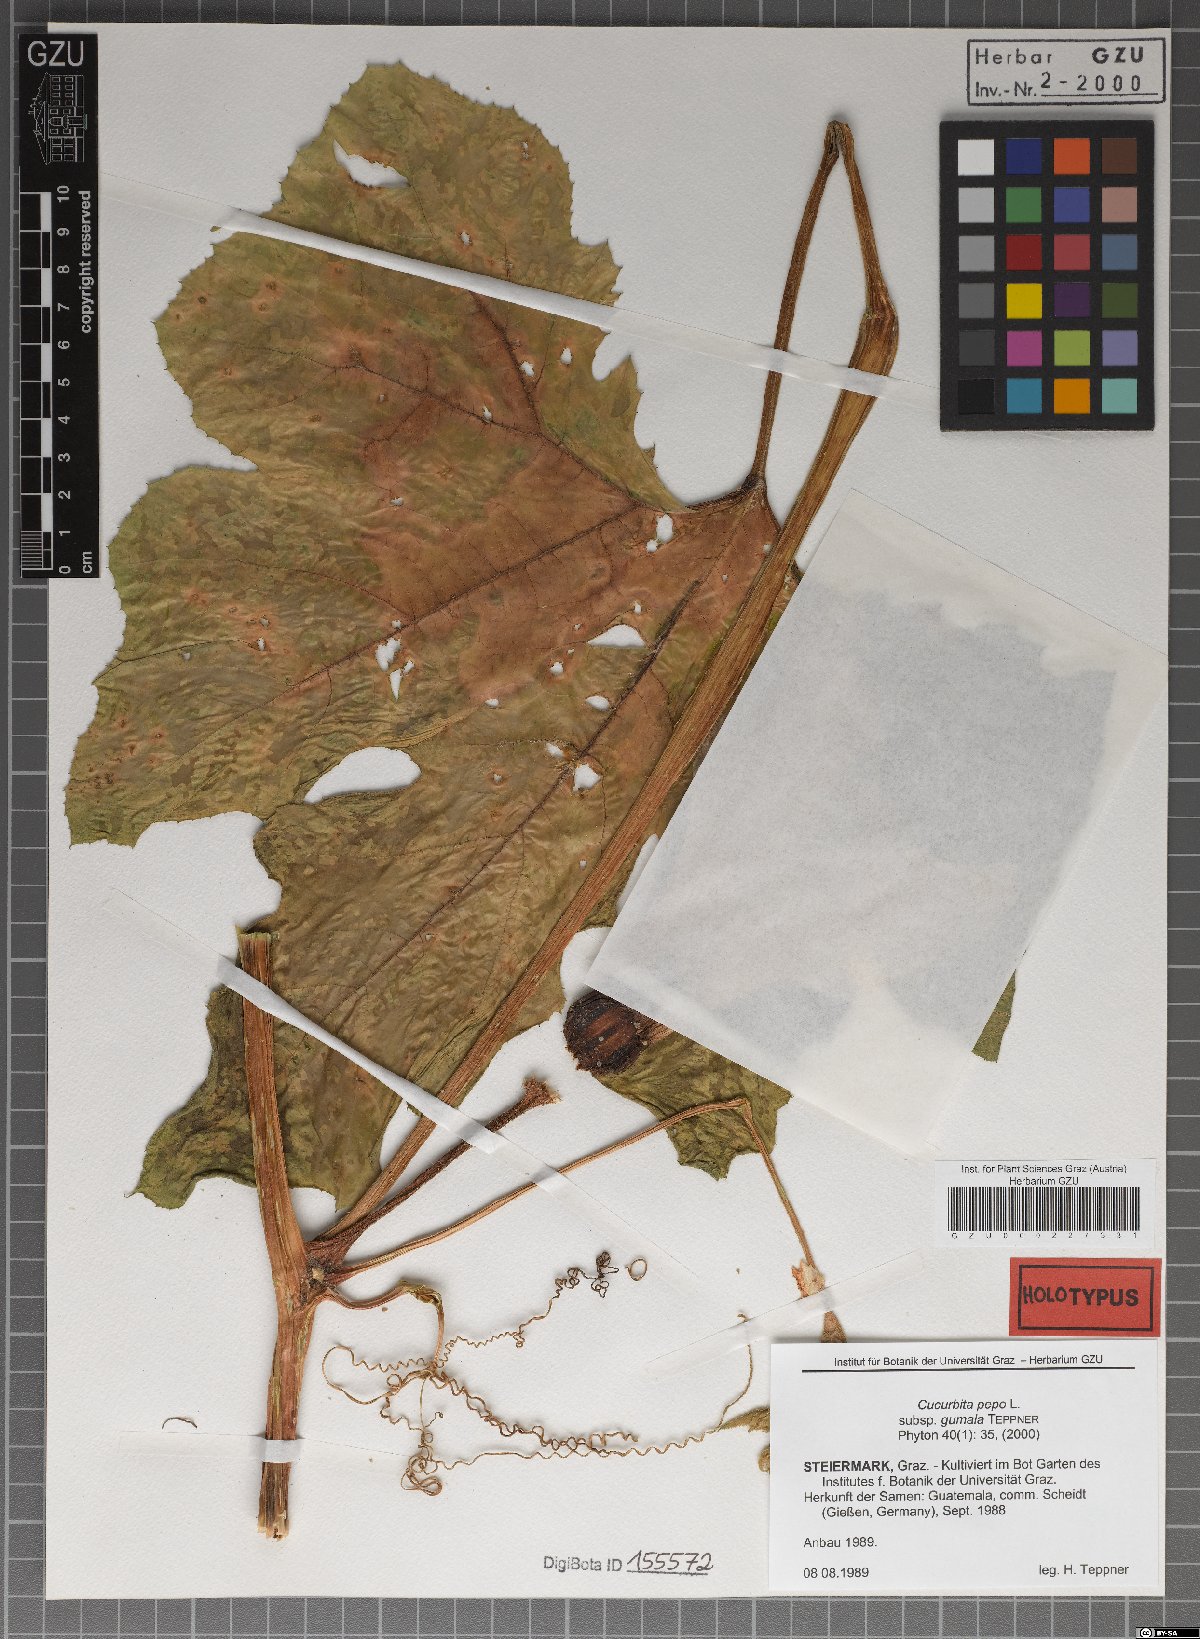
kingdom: Plantae
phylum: Tracheophyta
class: Magnoliopsida
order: Cucurbitales
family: Cucurbitaceae
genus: Cucurbita
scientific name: Cucurbita pepo
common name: Marrow
